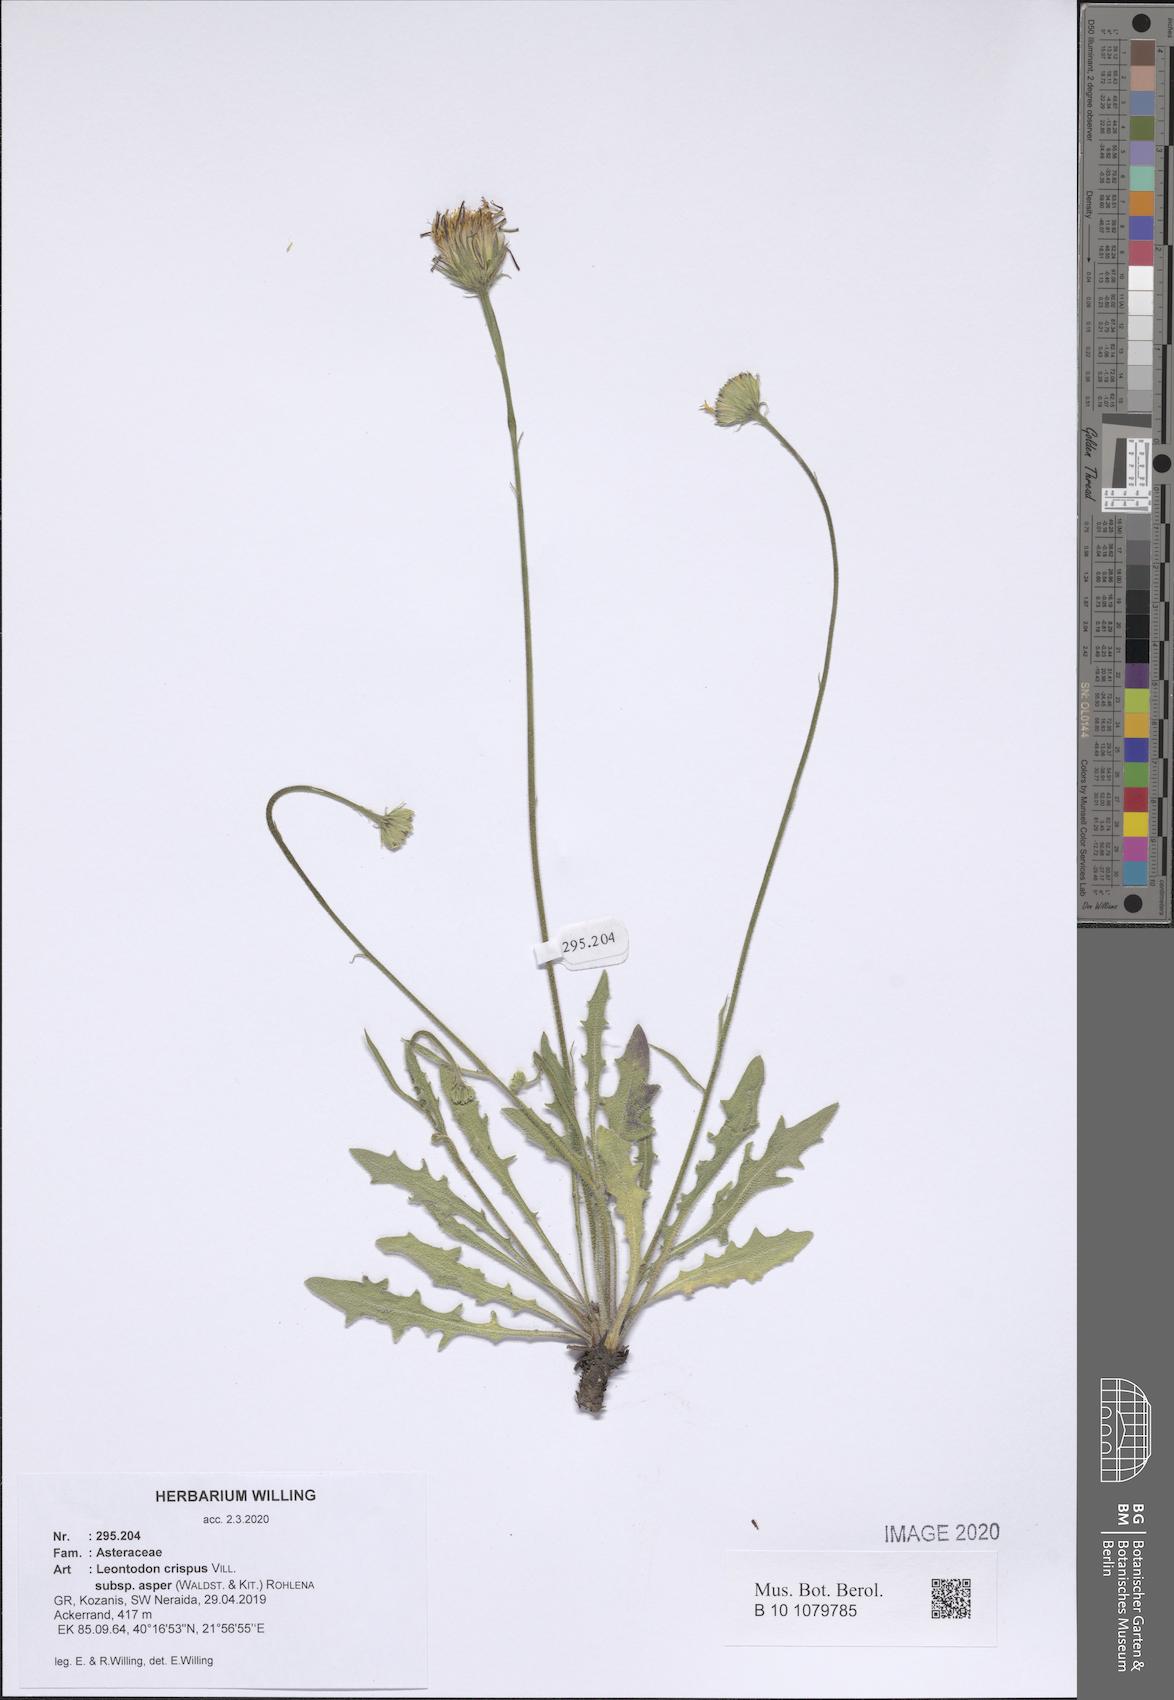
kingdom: Plantae
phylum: Tracheophyta
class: Magnoliopsida
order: Asterales
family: Asteraceae
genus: Leontodon
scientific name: Leontodon biscutellifolius
